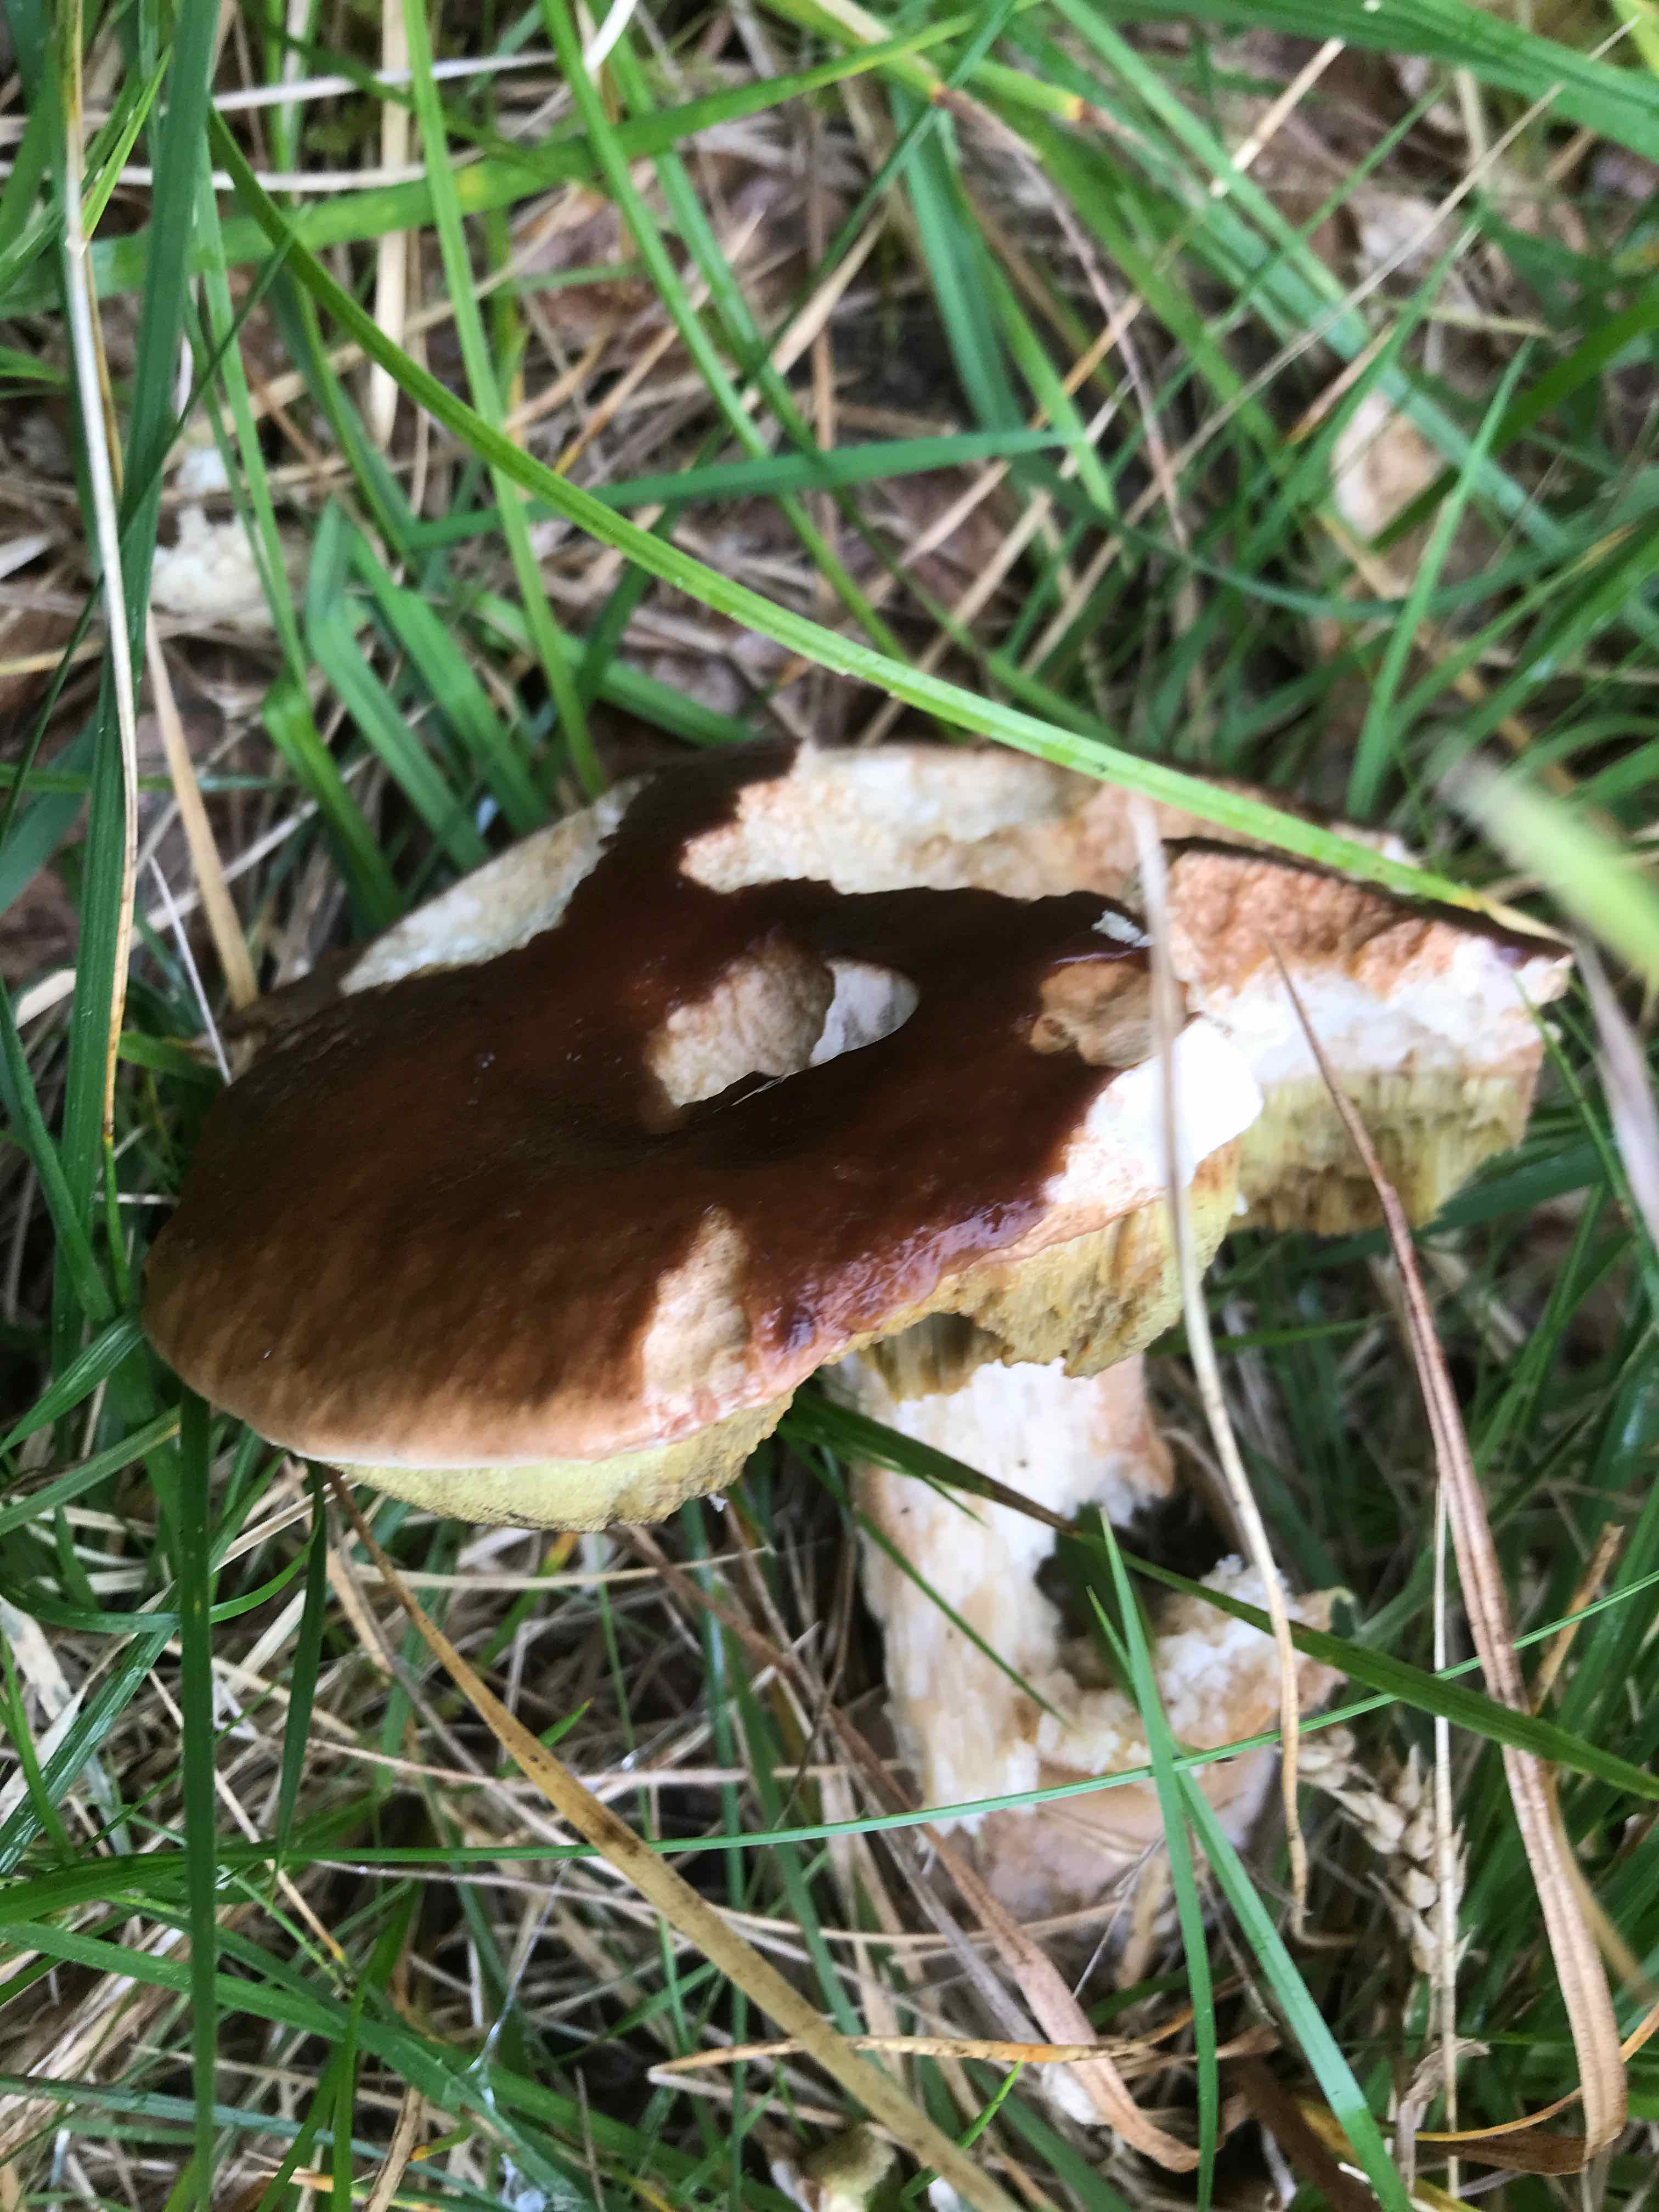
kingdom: Fungi
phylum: Basidiomycota
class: Agaricomycetes
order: Boletales
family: Boletaceae
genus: Boletus
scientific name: Boletus edulis
